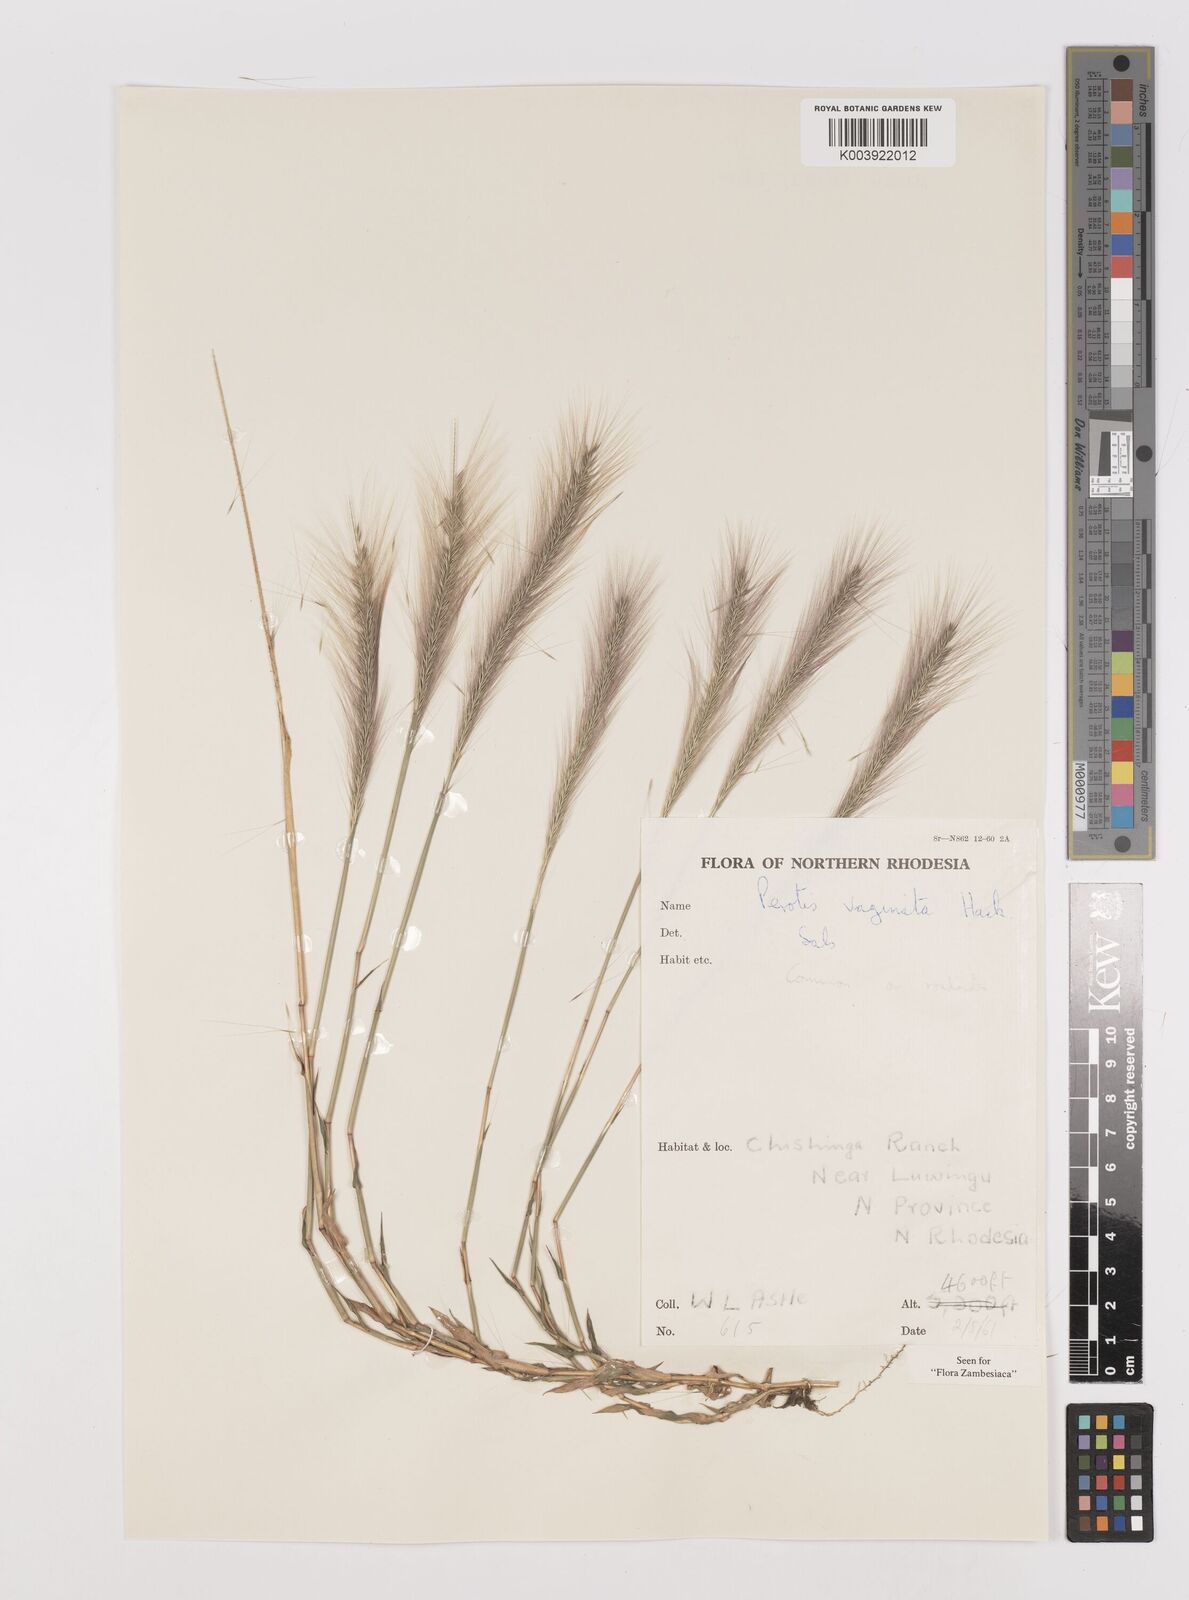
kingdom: Plantae
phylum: Tracheophyta
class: Liliopsida
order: Poales
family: Poaceae
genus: Perotis
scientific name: Perotis vaginata
